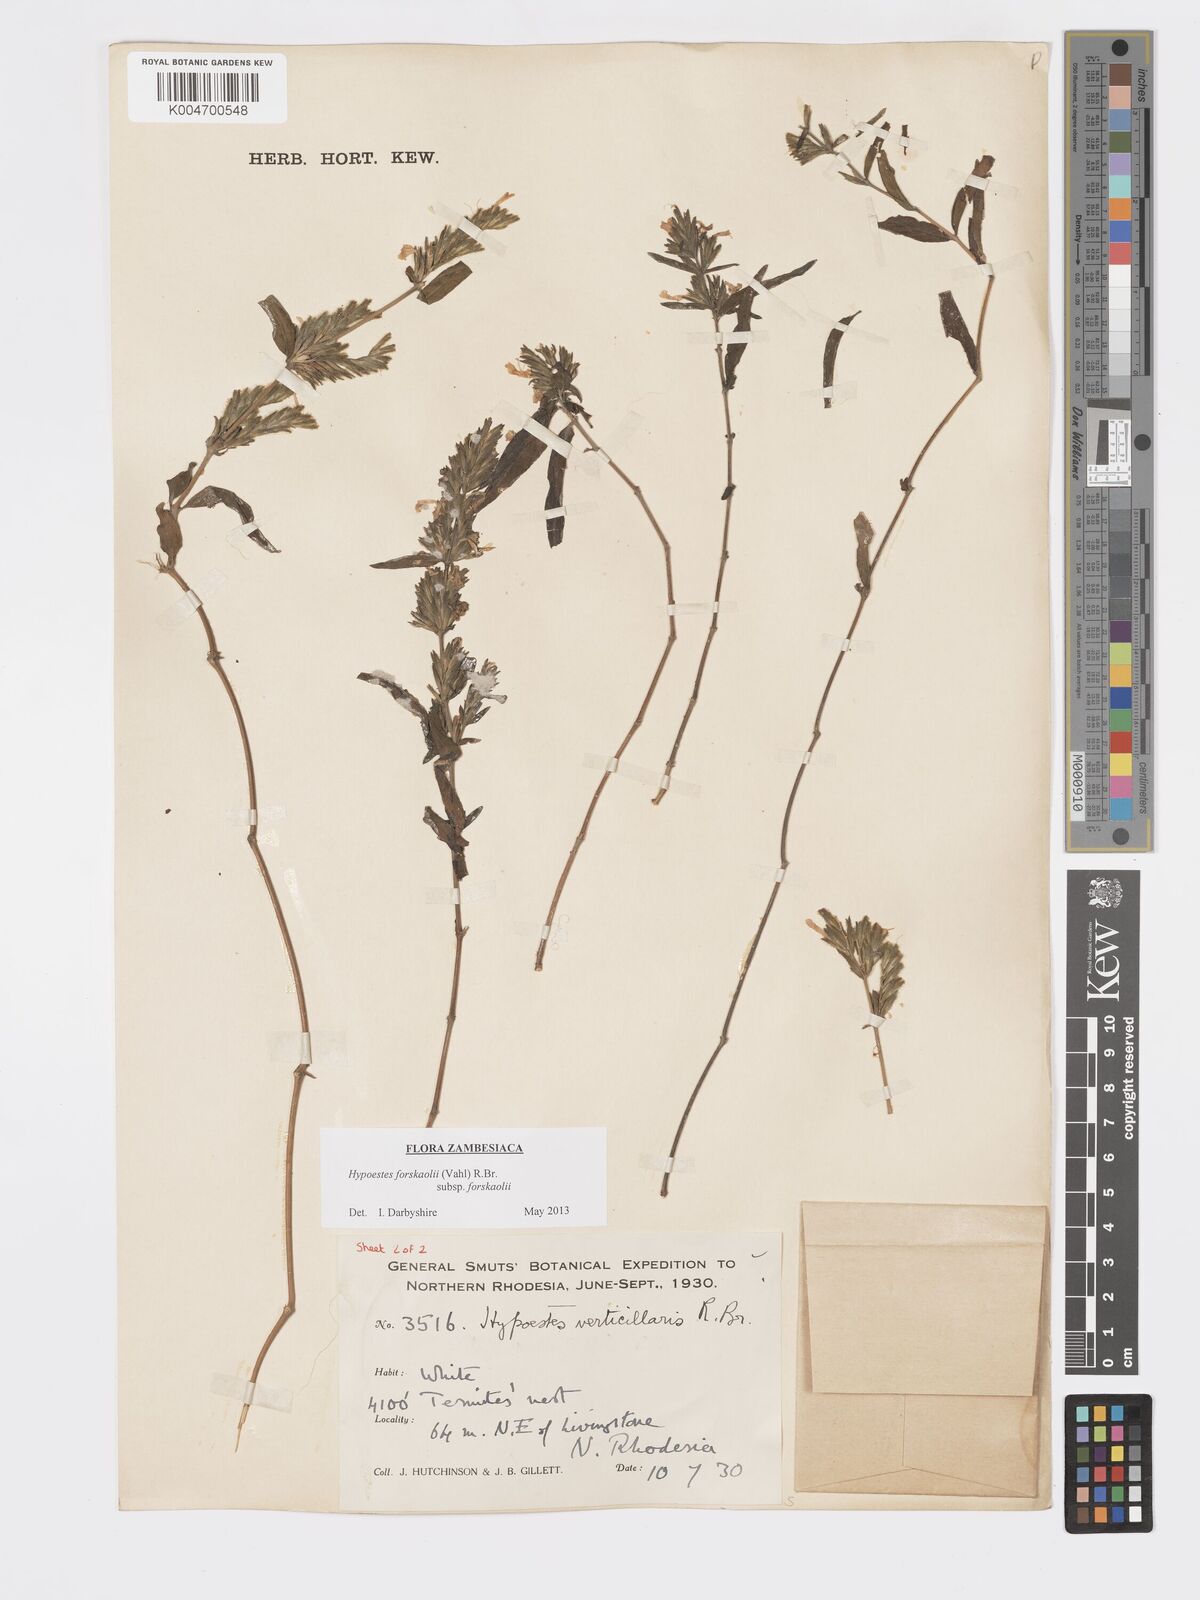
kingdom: Plantae
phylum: Tracheophyta
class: Magnoliopsida
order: Lamiales
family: Acanthaceae
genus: Hypoestes
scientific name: Hypoestes forskaolii
